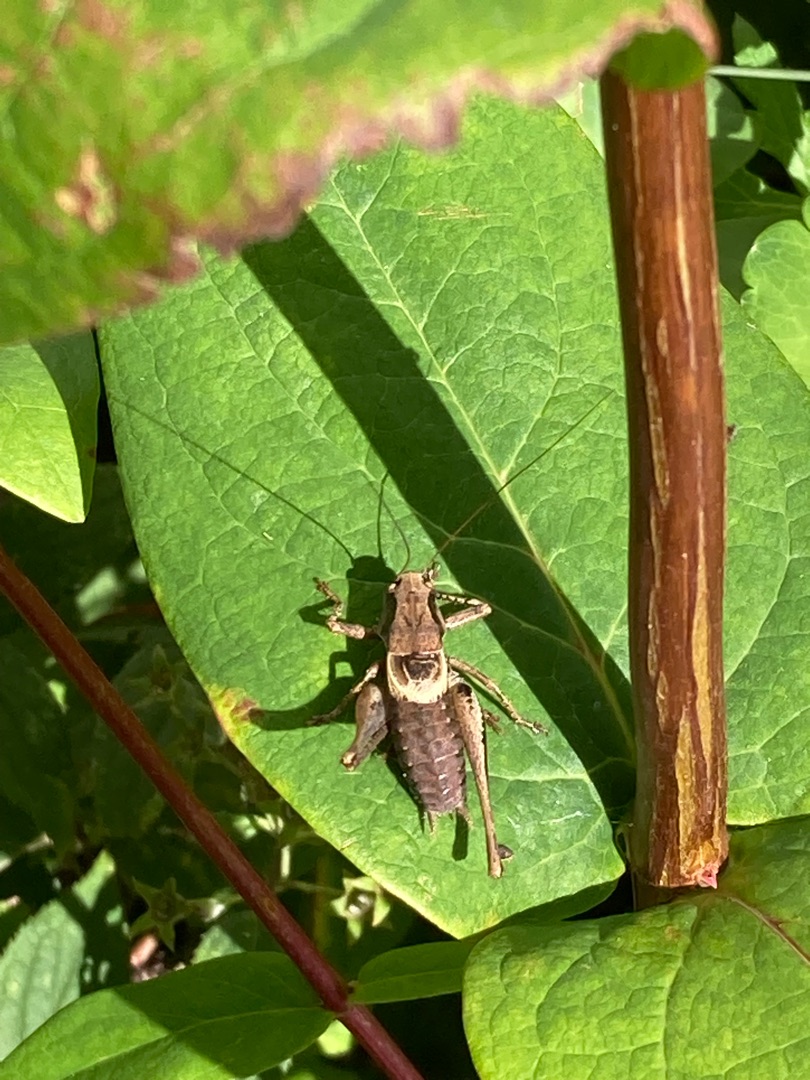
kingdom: Animalia
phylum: Arthropoda
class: Insecta
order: Orthoptera
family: Tettigoniidae
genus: Pholidoptera
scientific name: Pholidoptera griseoaptera
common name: Buskgræshoppe
